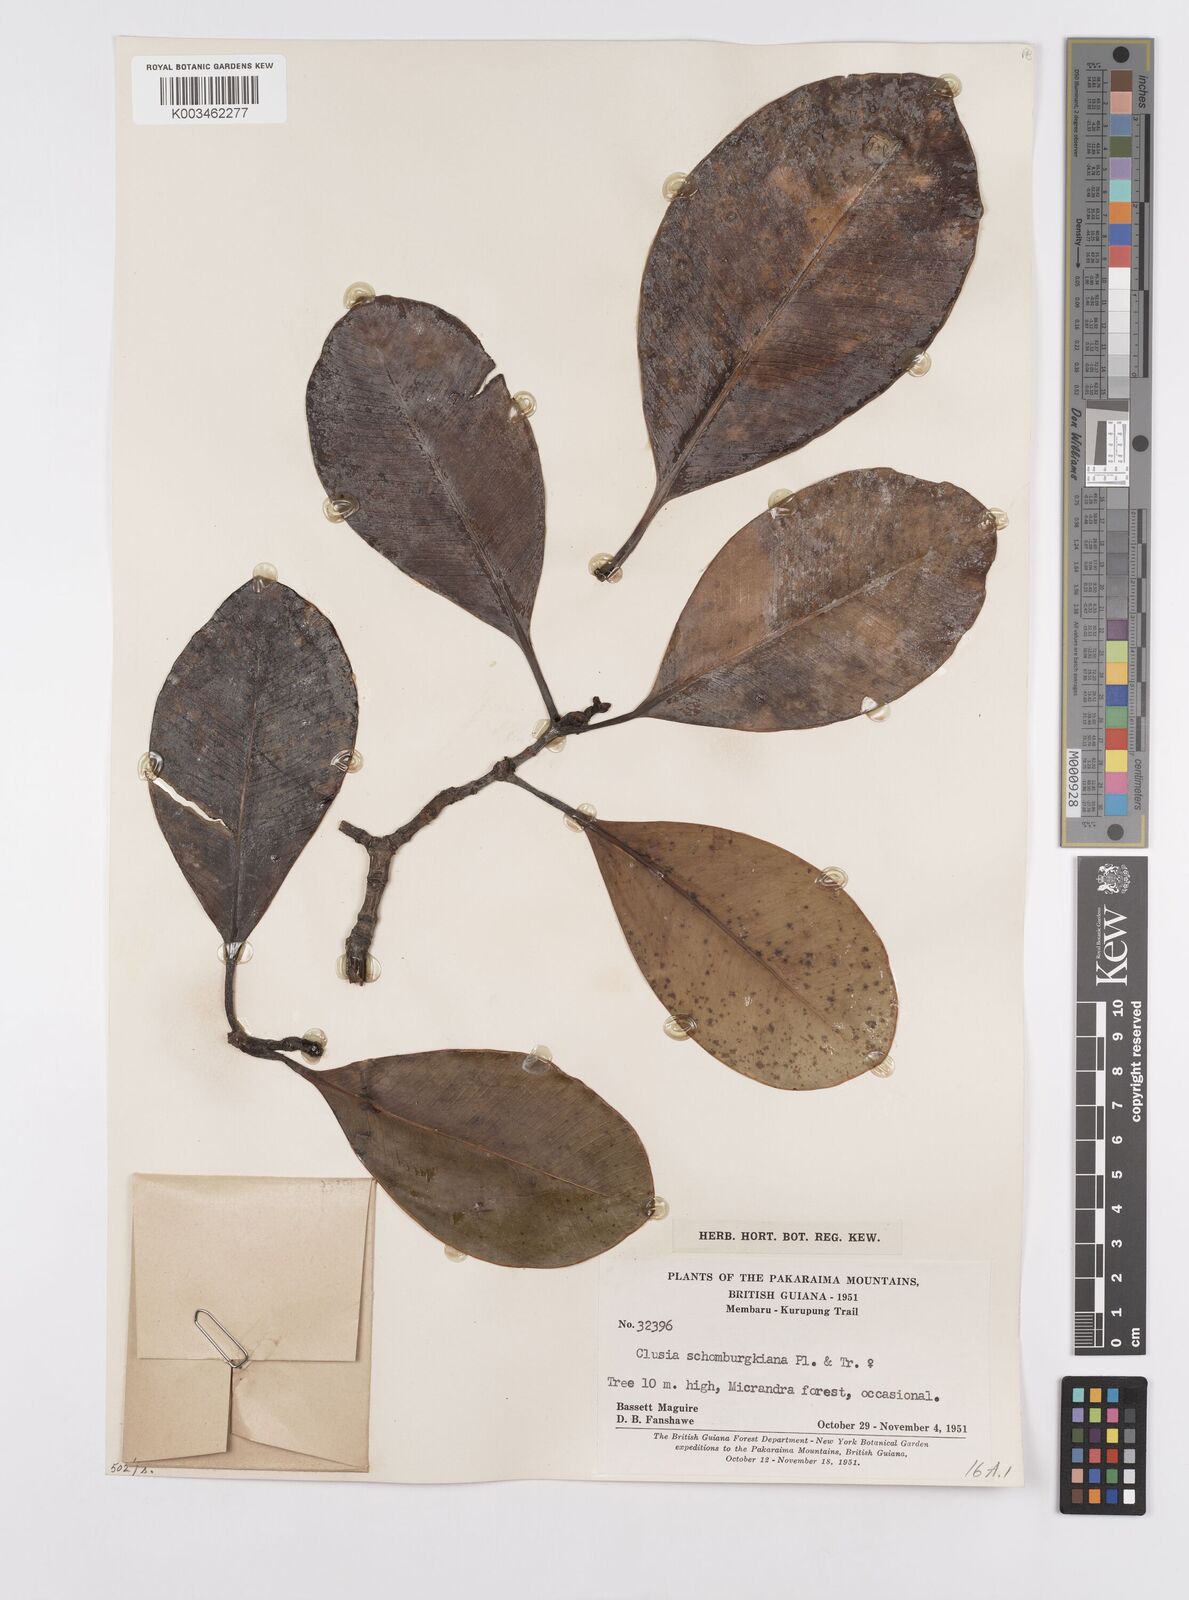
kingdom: Plantae
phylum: Tracheophyta
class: Magnoliopsida
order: Malpighiales
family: Clusiaceae
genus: Clusia
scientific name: Clusia schomburgkiana
